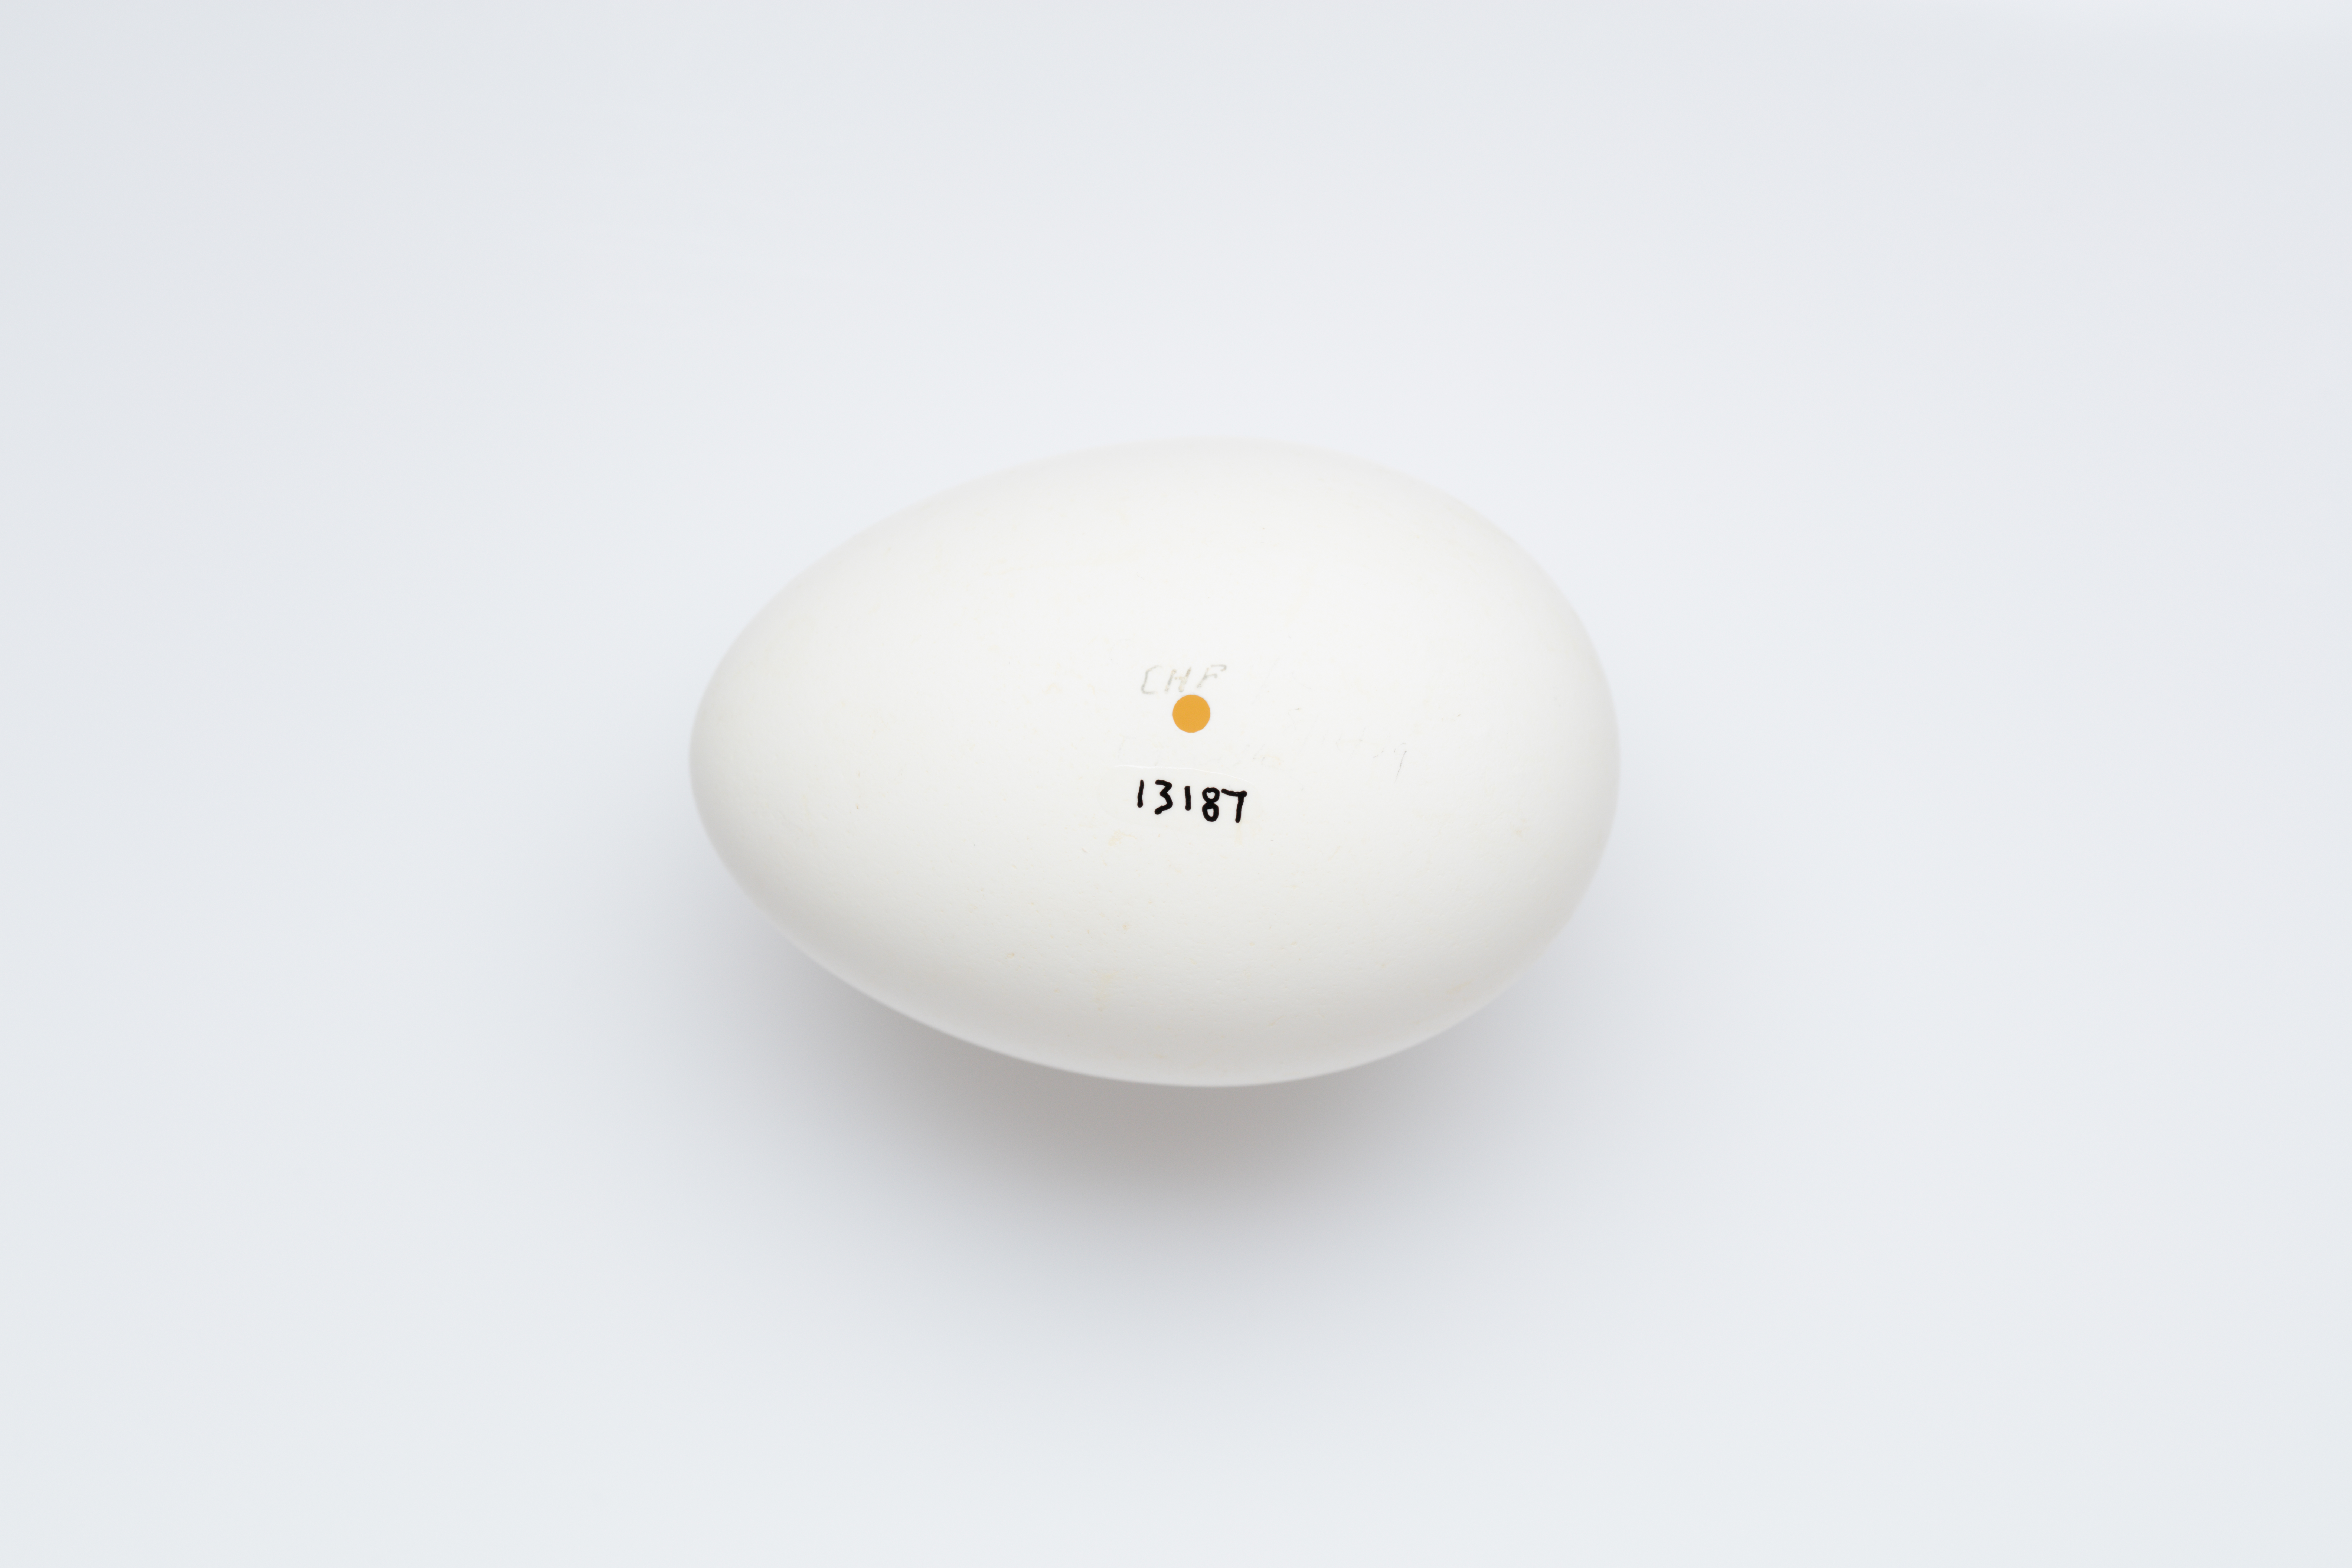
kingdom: Animalia
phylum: Chordata
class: Aves
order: Procellariiformes
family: Procellariidae
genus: Puffinus
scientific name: Puffinus carneipes
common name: Flesh-footed shearwater
